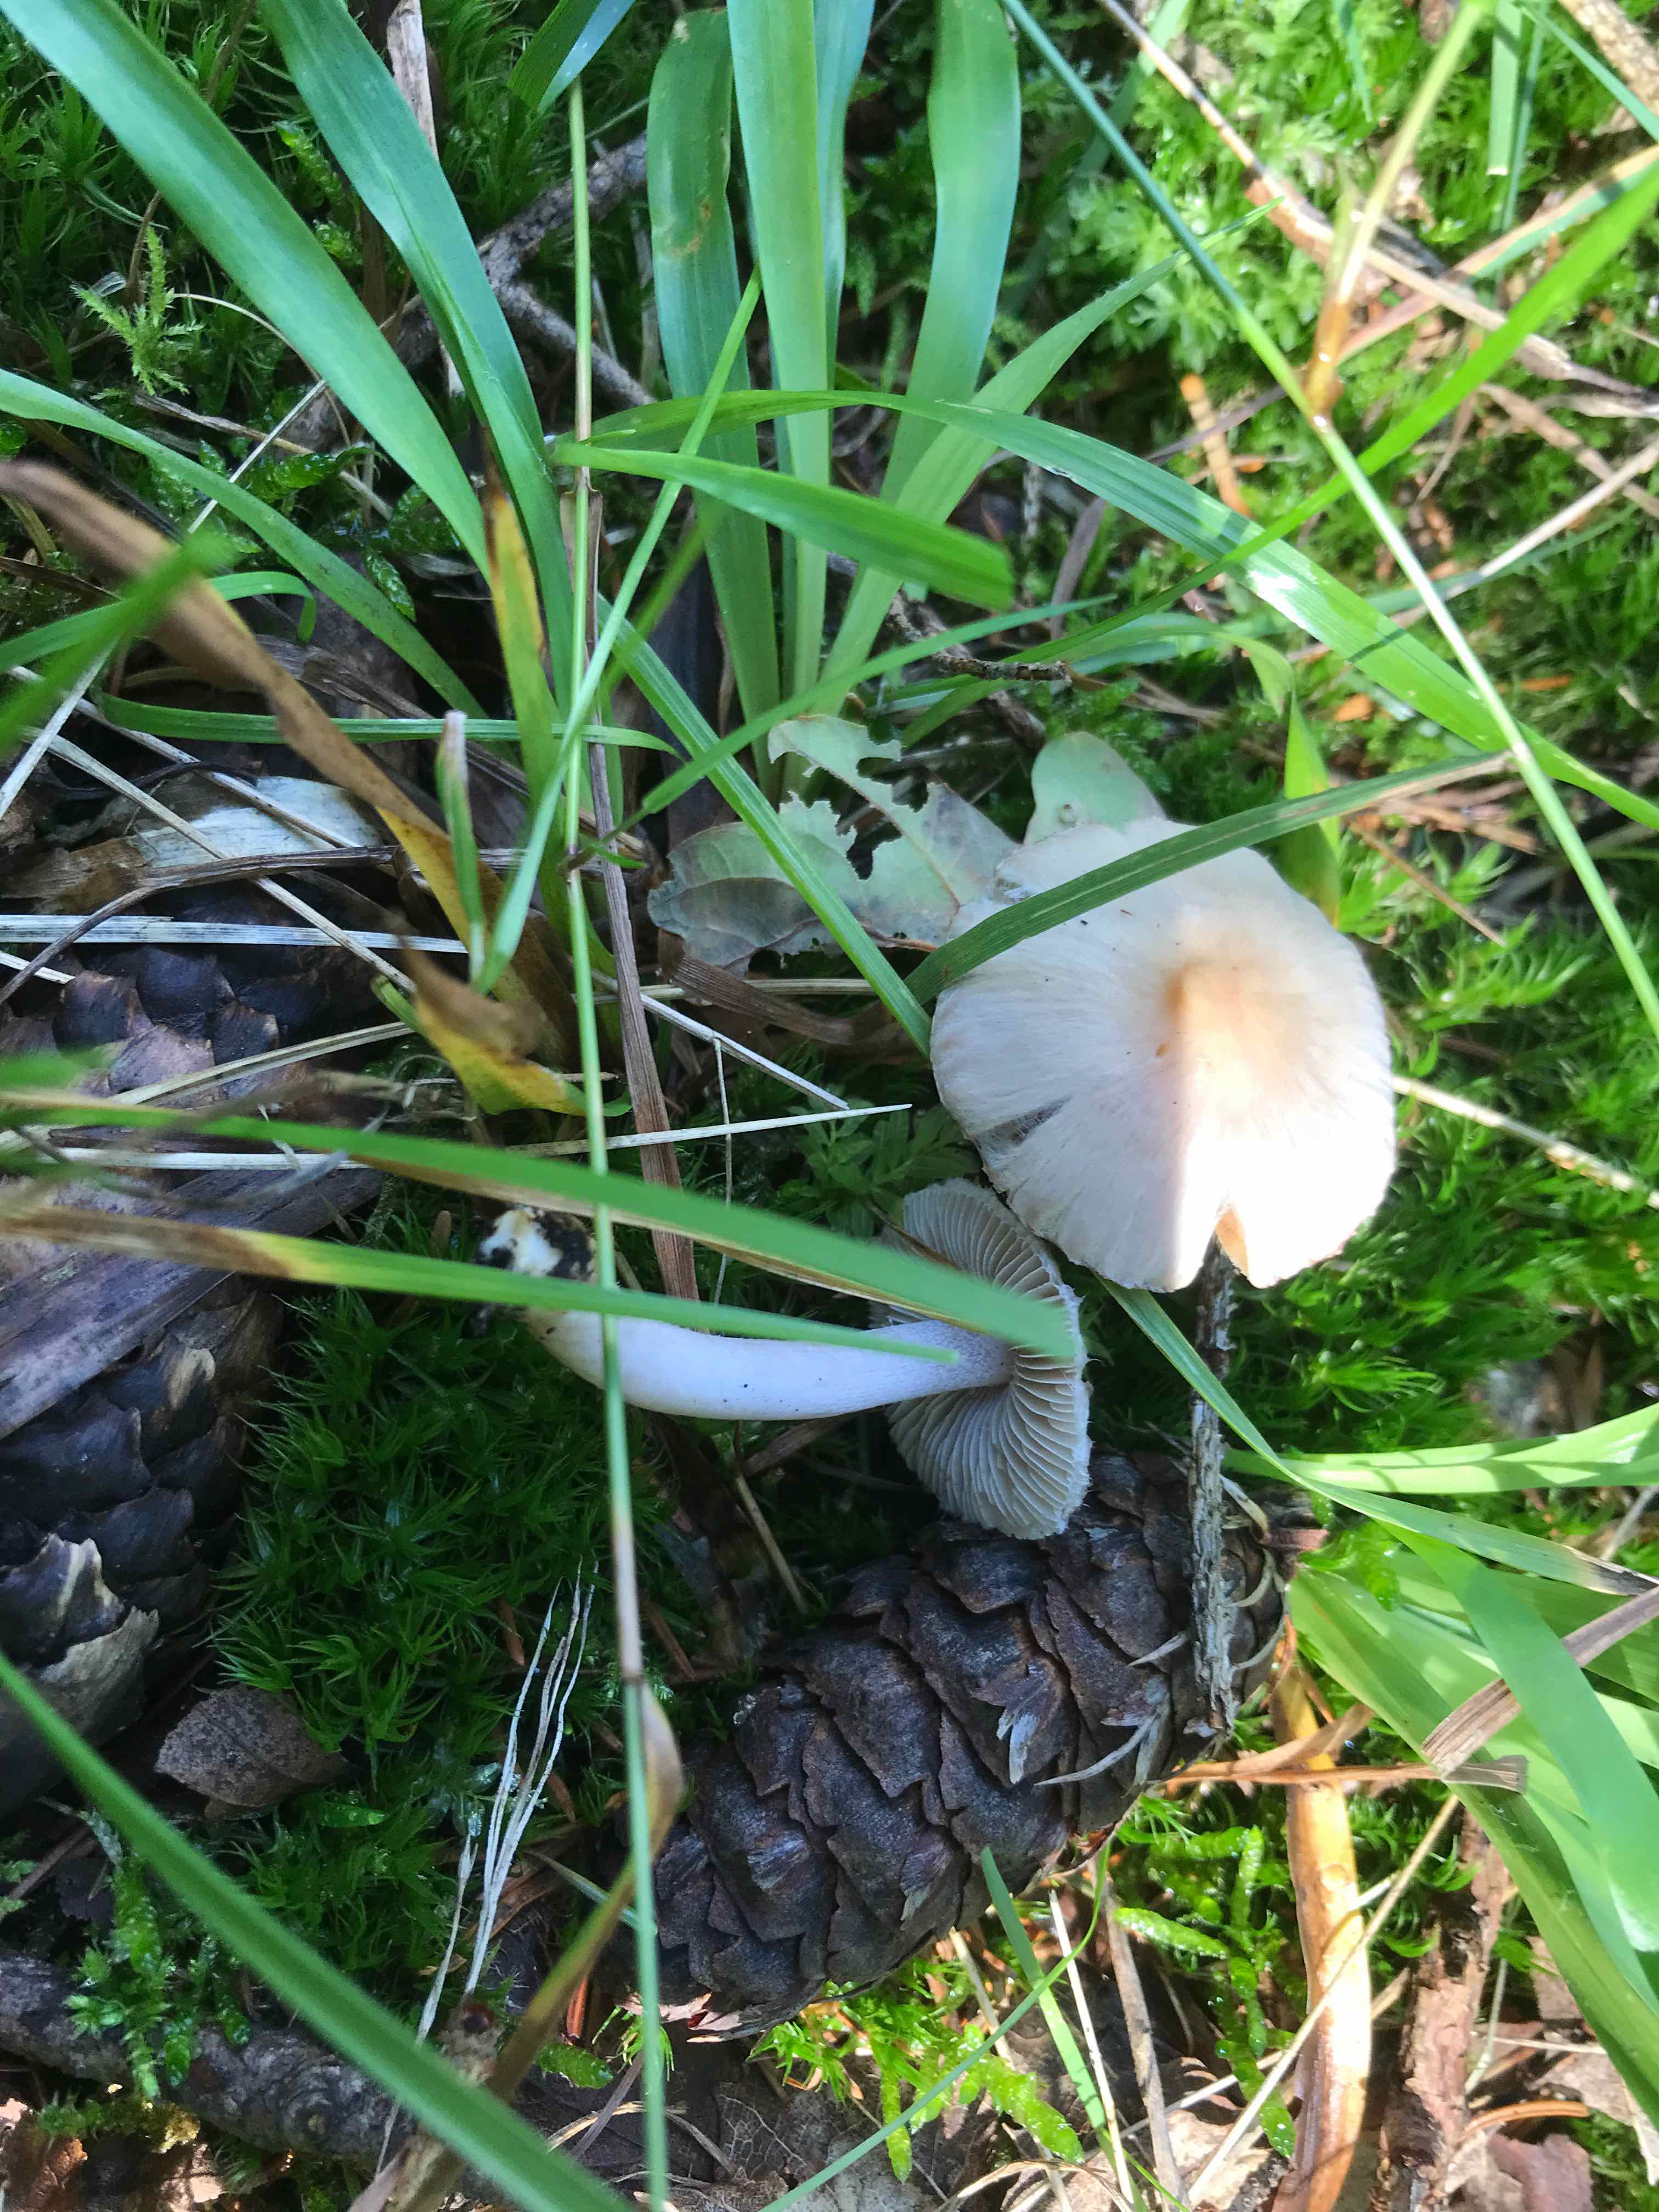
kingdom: Fungi
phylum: Basidiomycota
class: Agaricomycetes
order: Agaricales
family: Inocybaceae
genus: Inocybe
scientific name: Inocybe
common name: almindelig trævlhat
